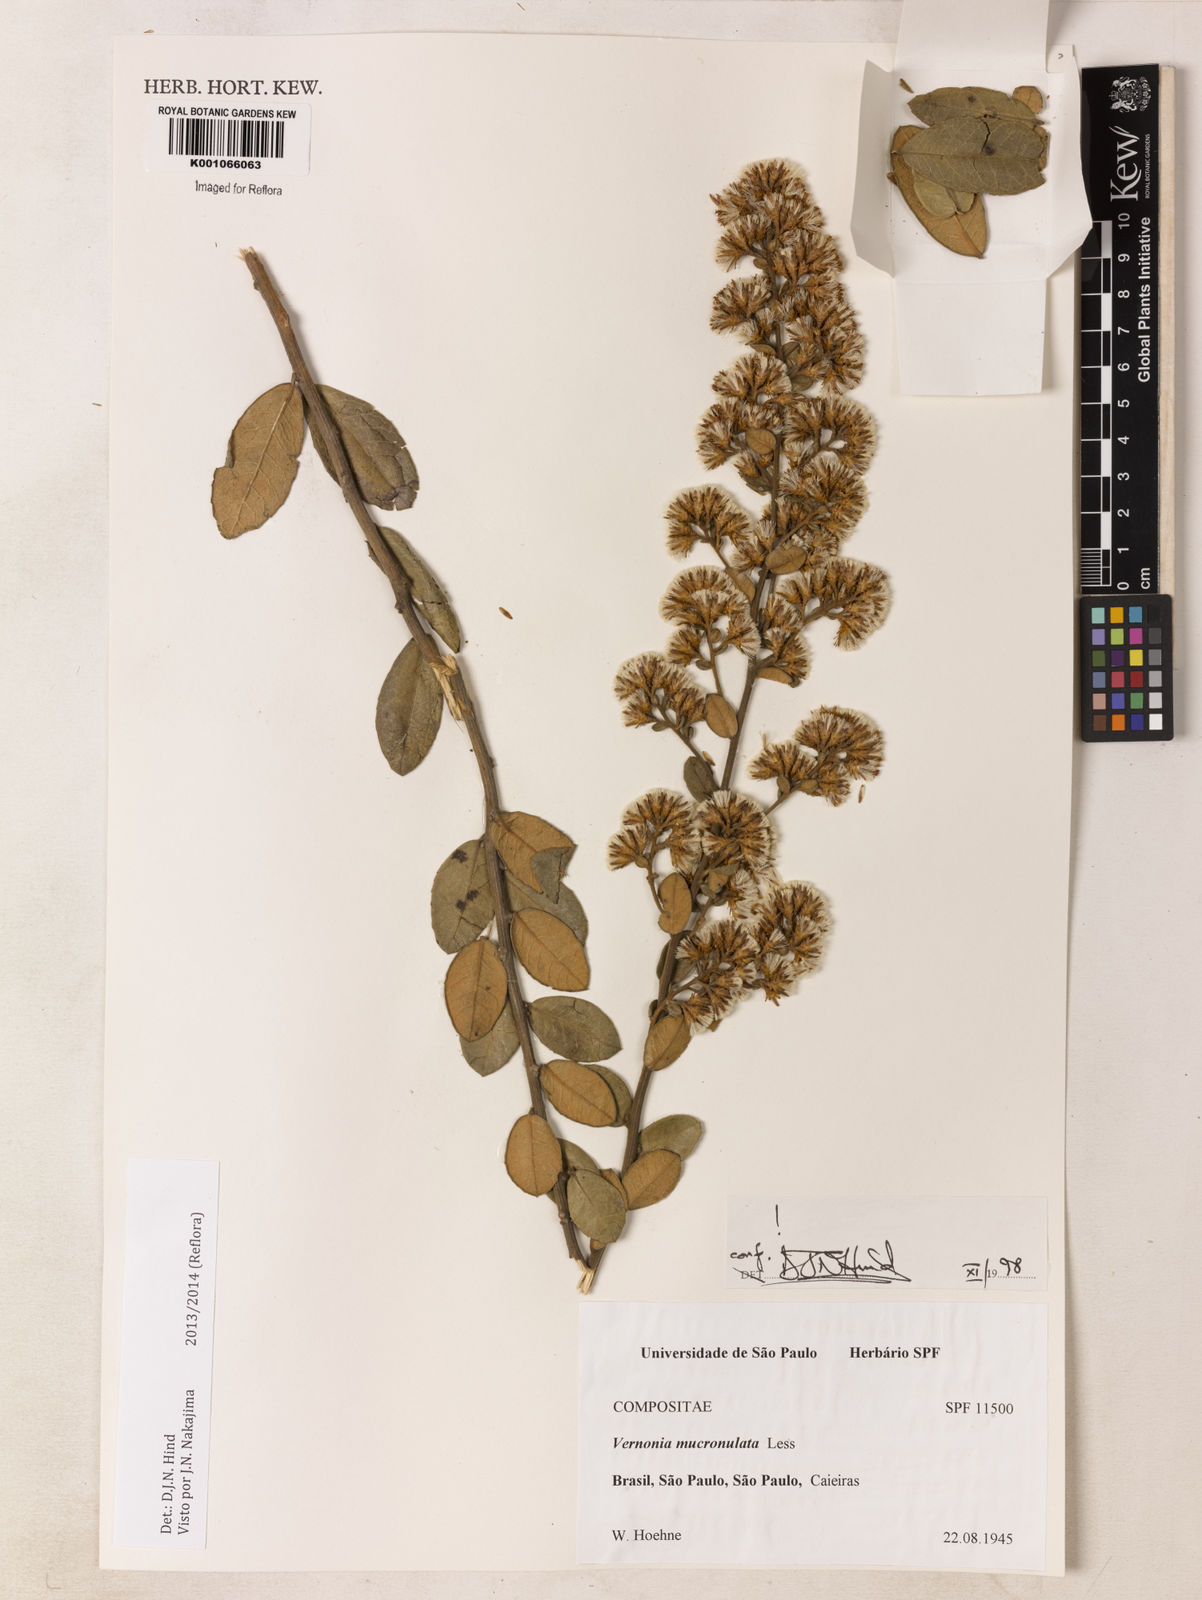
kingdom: Plantae
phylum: Tracheophyta
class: Magnoliopsida
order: Asterales
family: Asteraceae
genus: Vernonanthura
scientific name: Vernonanthura mucronulata
